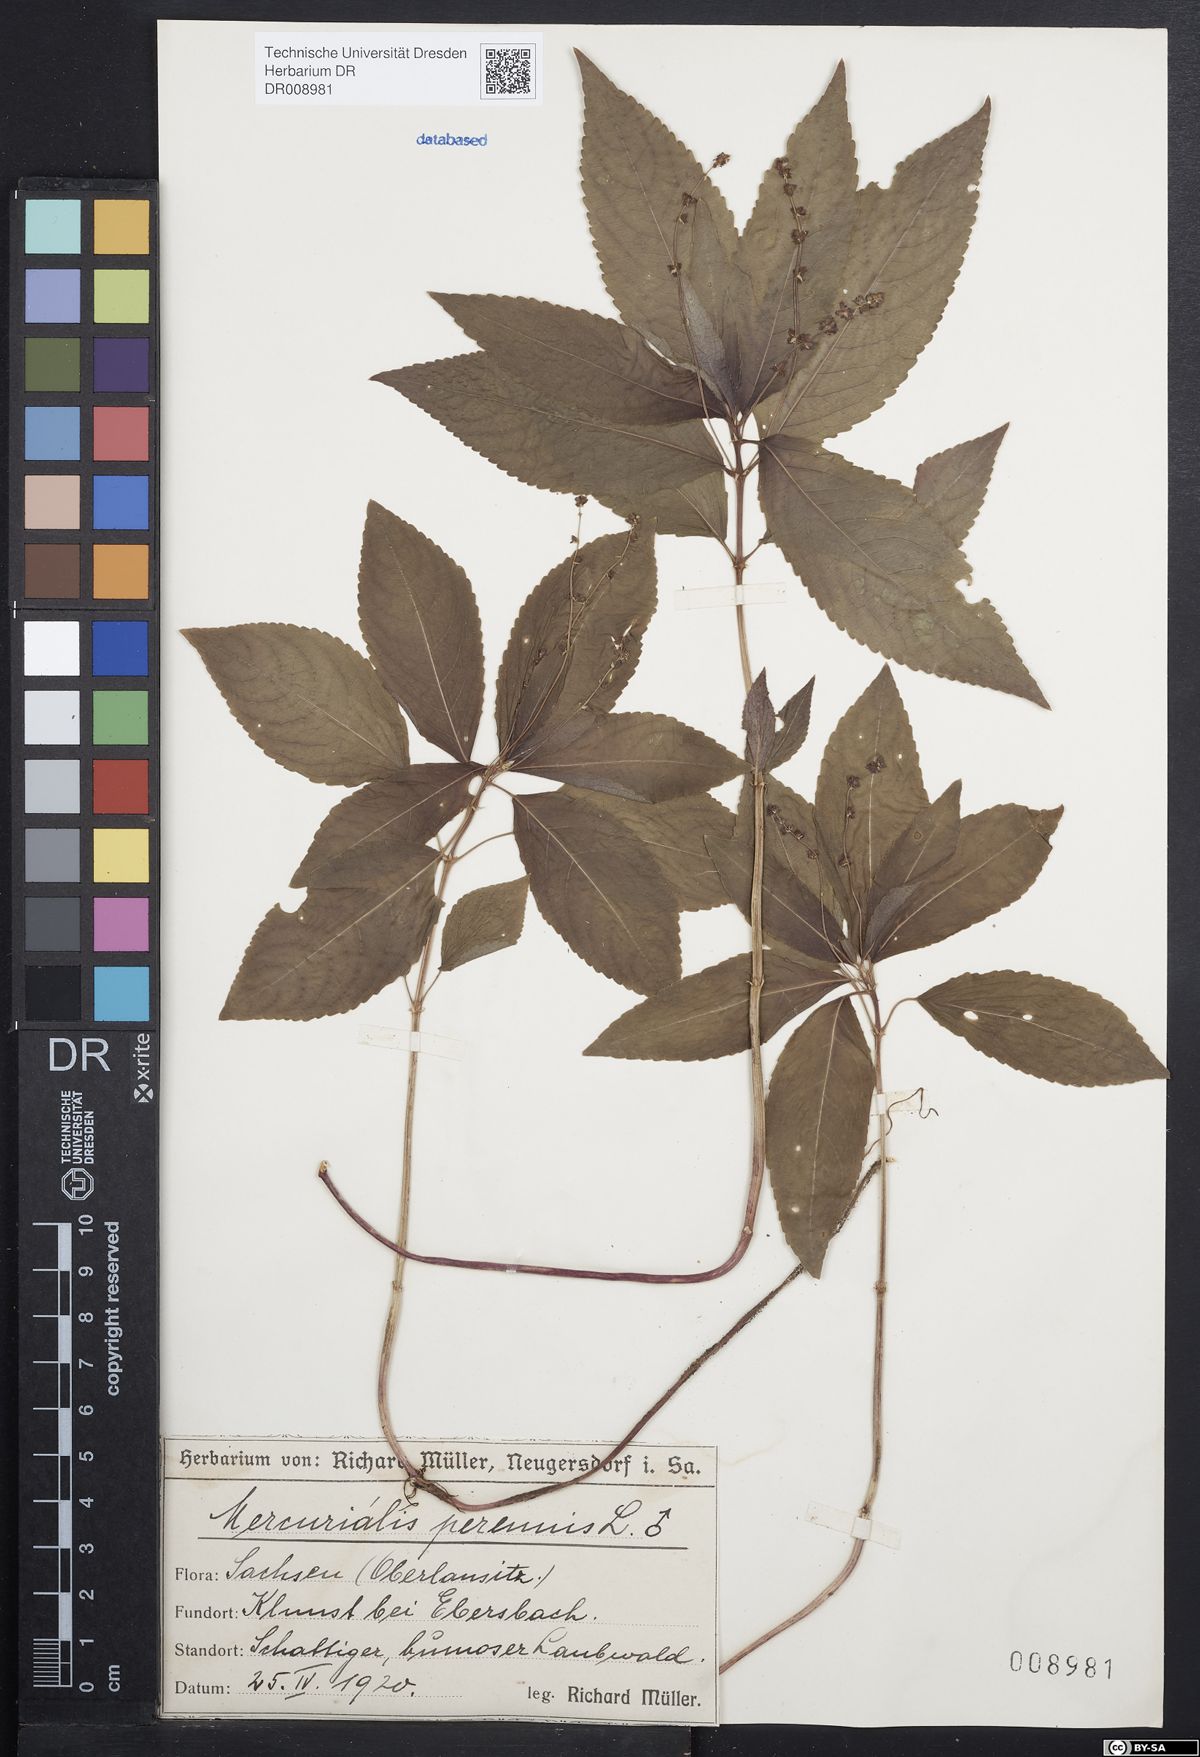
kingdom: Plantae
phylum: Tracheophyta
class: Magnoliopsida
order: Malpighiales
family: Euphorbiaceae
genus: Mercurialis
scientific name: Mercurialis perennis
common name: Dog mercury
